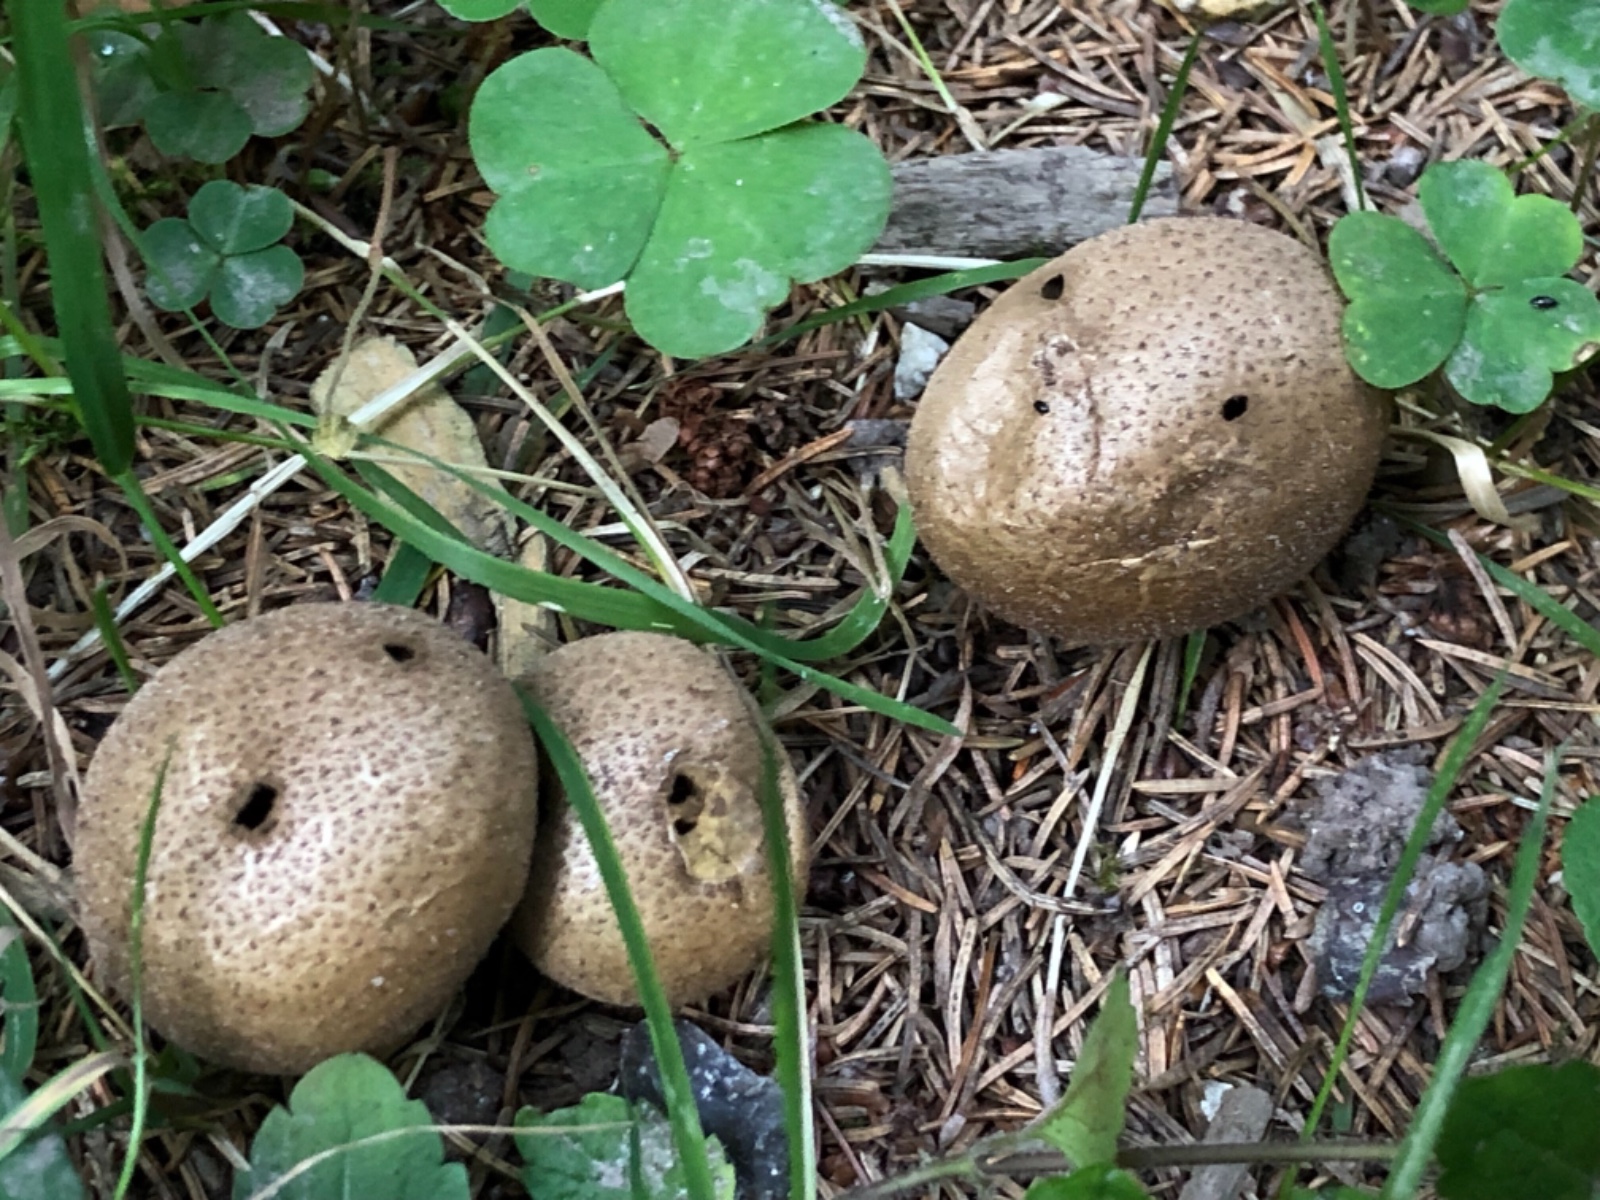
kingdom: Fungi
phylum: Basidiomycota
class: Agaricomycetes
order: Agaricales
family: Agaricaceae
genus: Lycoperdon
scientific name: Lycoperdon
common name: støvbold
